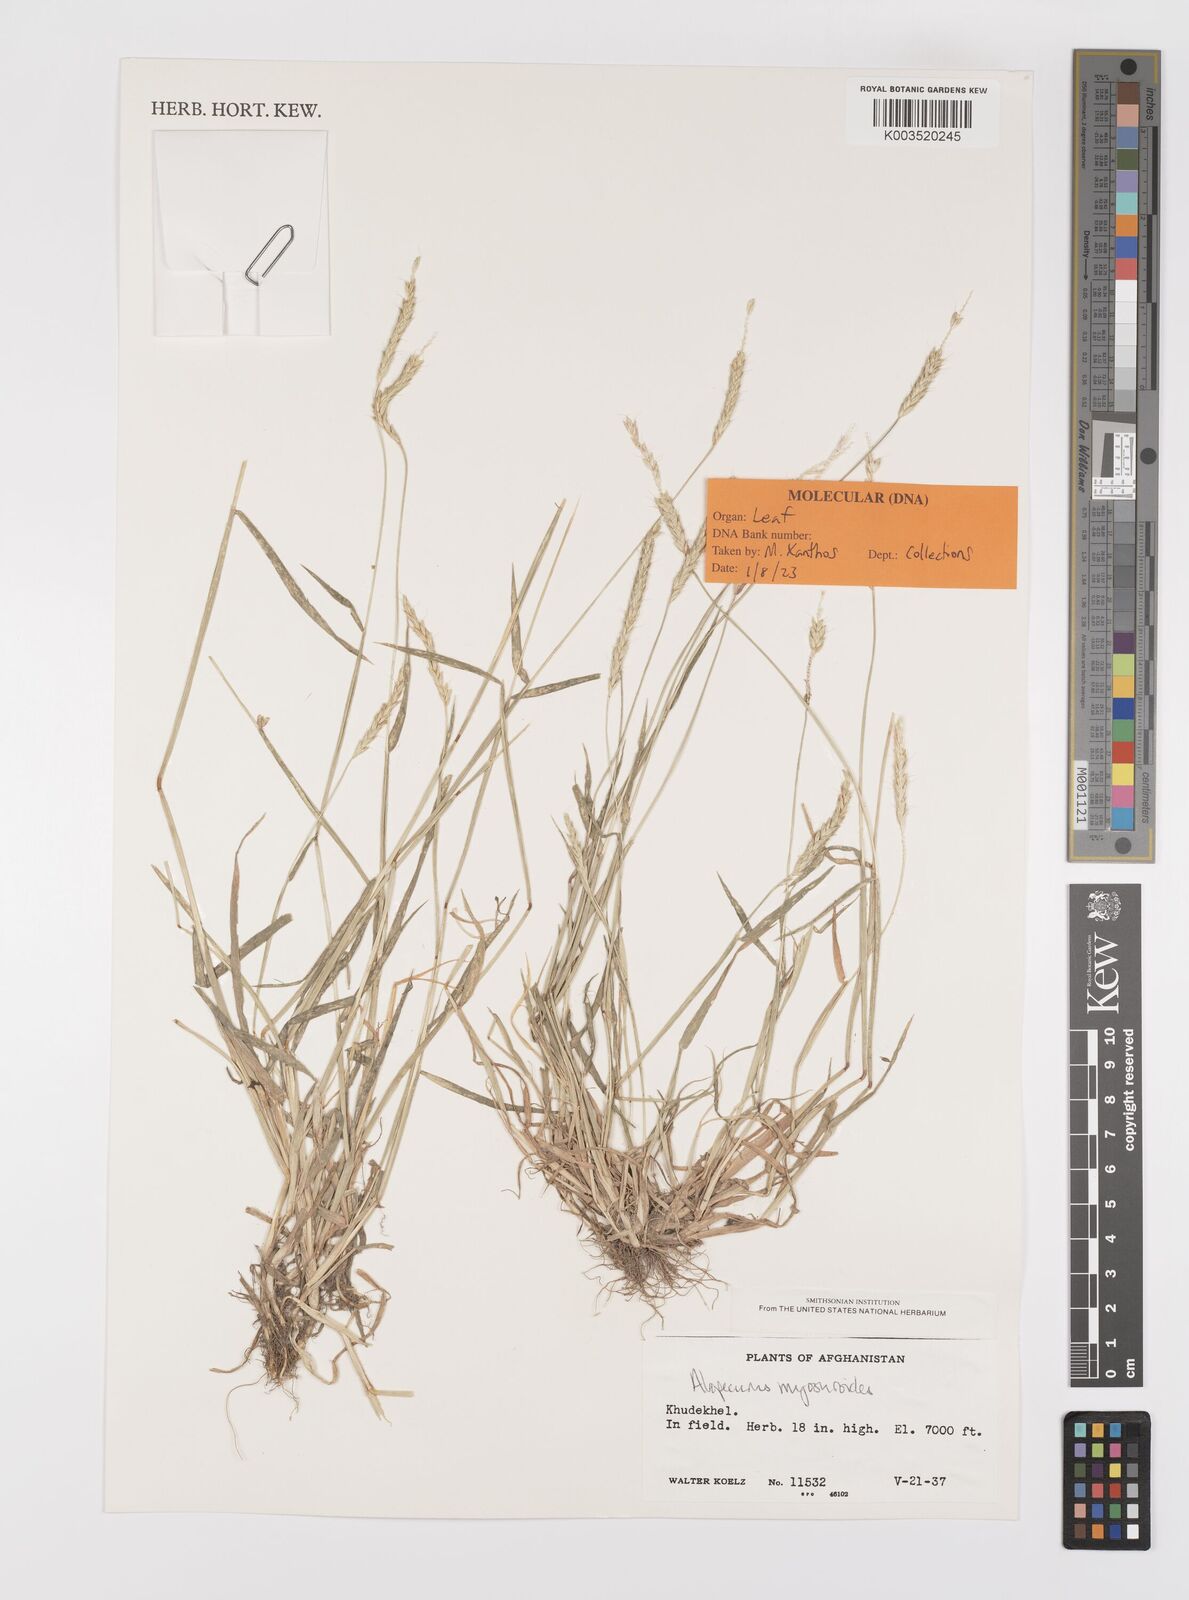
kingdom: Plantae
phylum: Tracheophyta
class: Liliopsida
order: Poales
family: Poaceae
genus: Alopecurus
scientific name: Alopecurus myosuroides
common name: Black-grass
